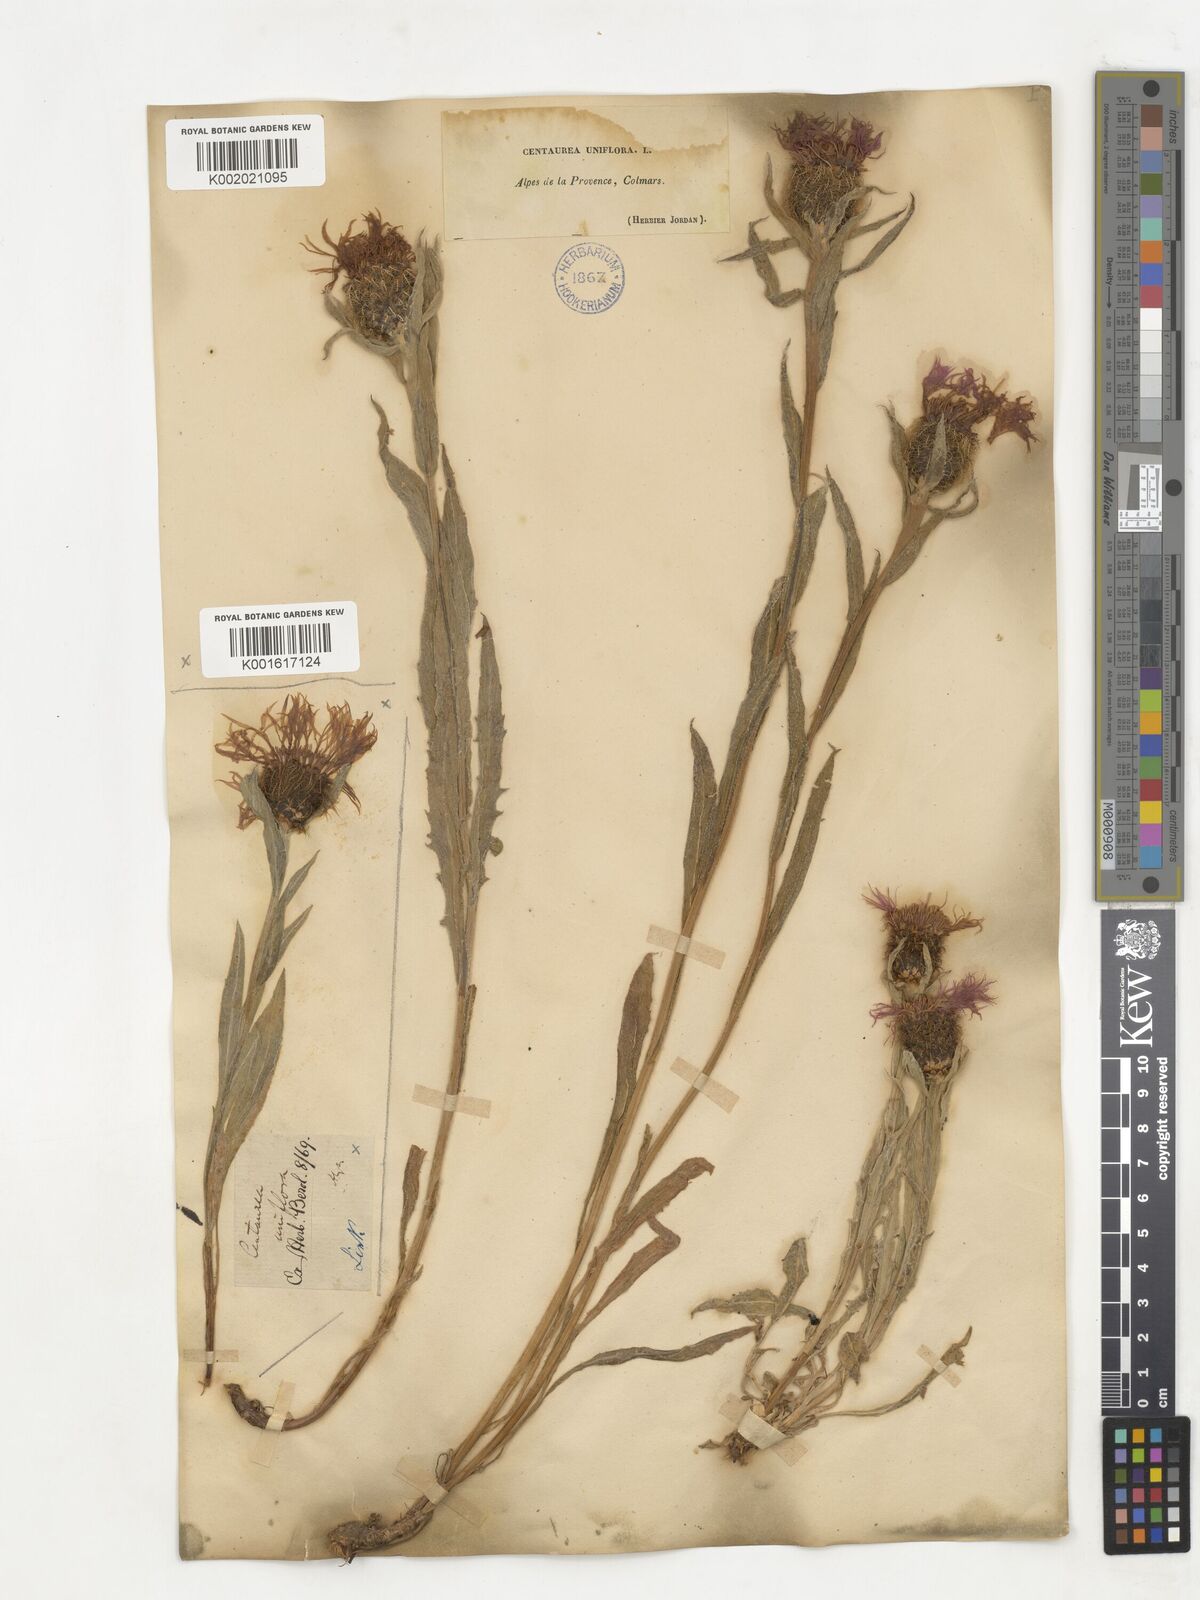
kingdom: Plantae
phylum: Tracheophyta
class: Magnoliopsida
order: Asterales
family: Asteraceae
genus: Centaurea
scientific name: Centaurea
